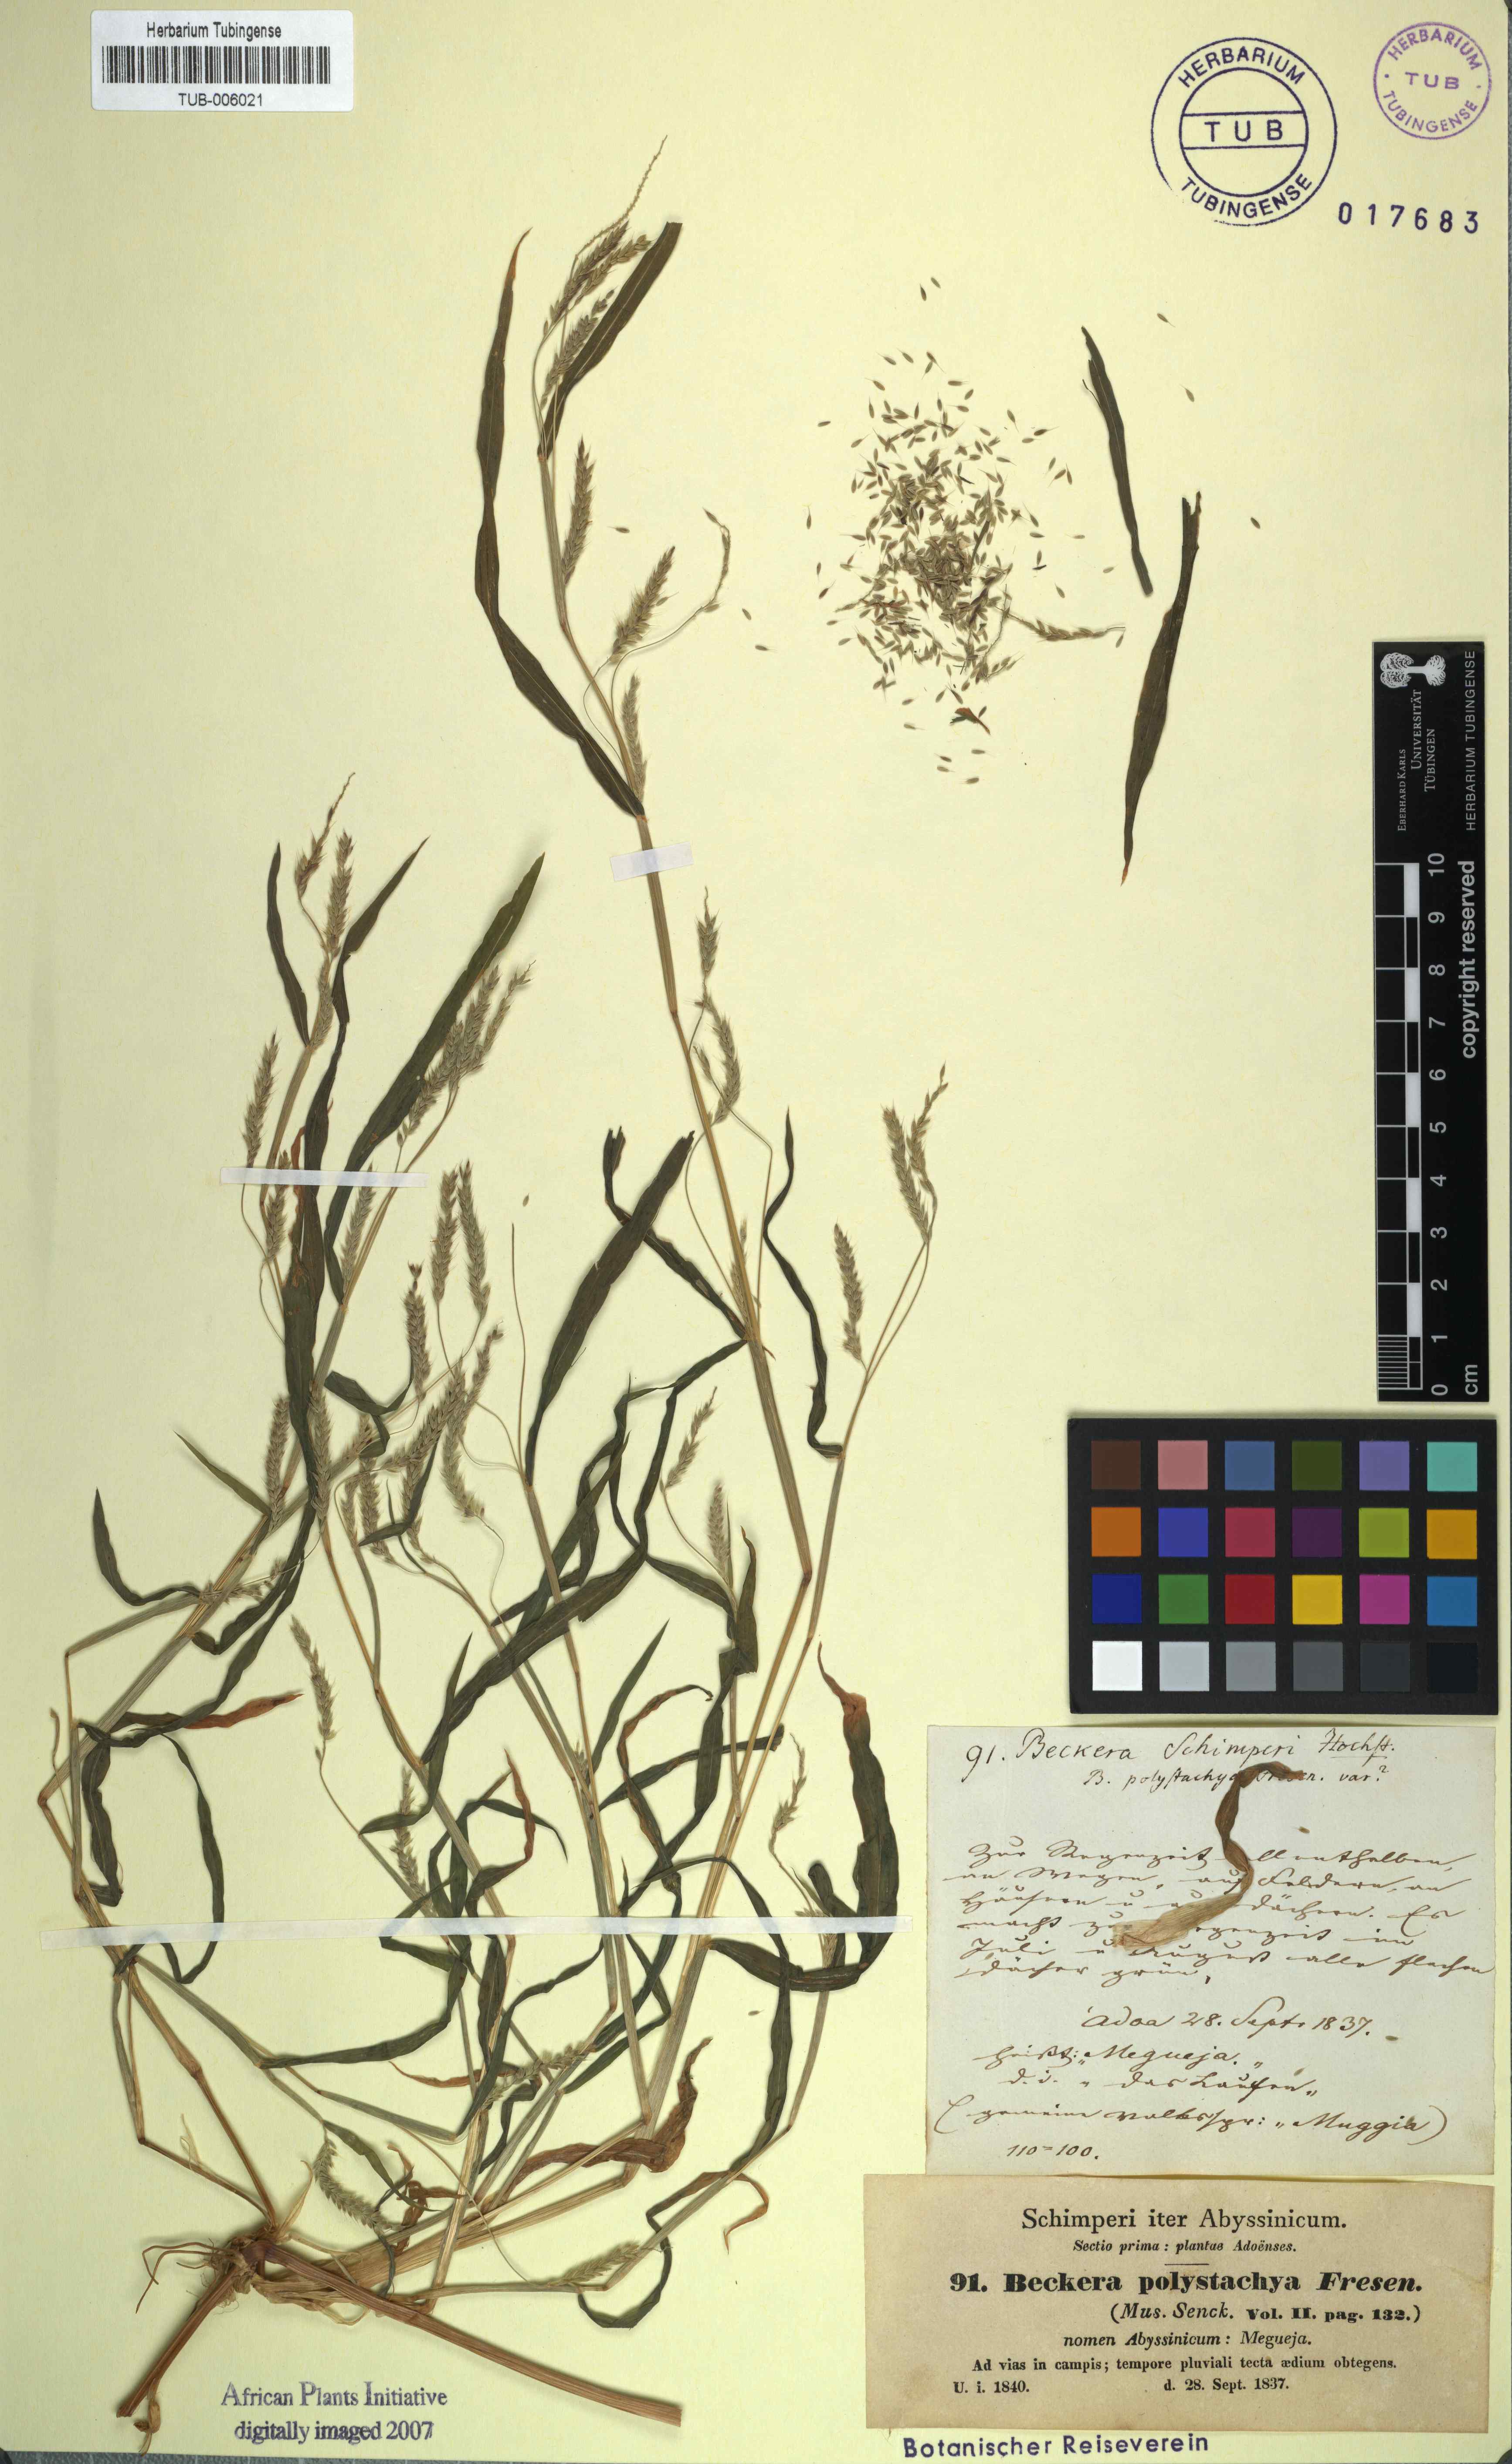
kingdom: Plantae
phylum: Tracheophyta
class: Liliopsida
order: Poales
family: Poaceae
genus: Snowdenia
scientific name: Snowdenia polystachya
